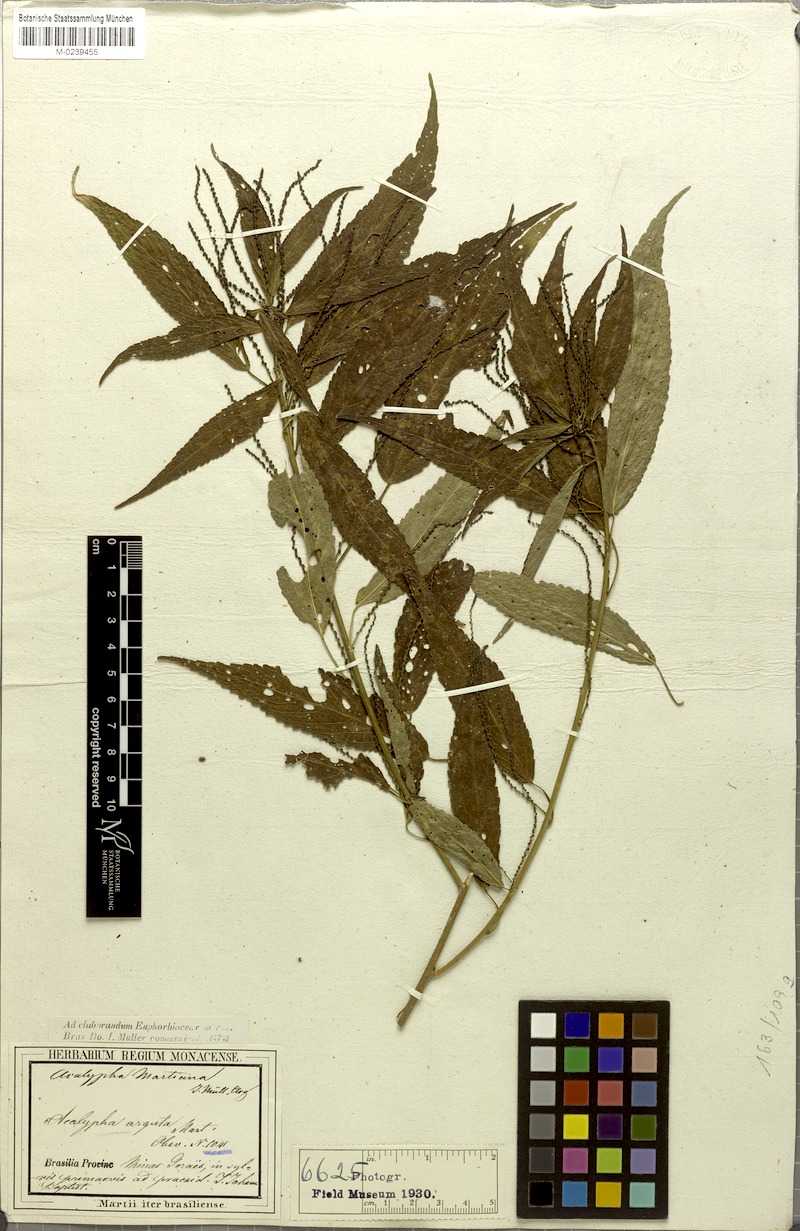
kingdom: Plantae
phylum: Tracheophyta
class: Magnoliopsida
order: Malpighiales
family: Euphorbiaceae
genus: Acalypha
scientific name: Acalypha martiana
